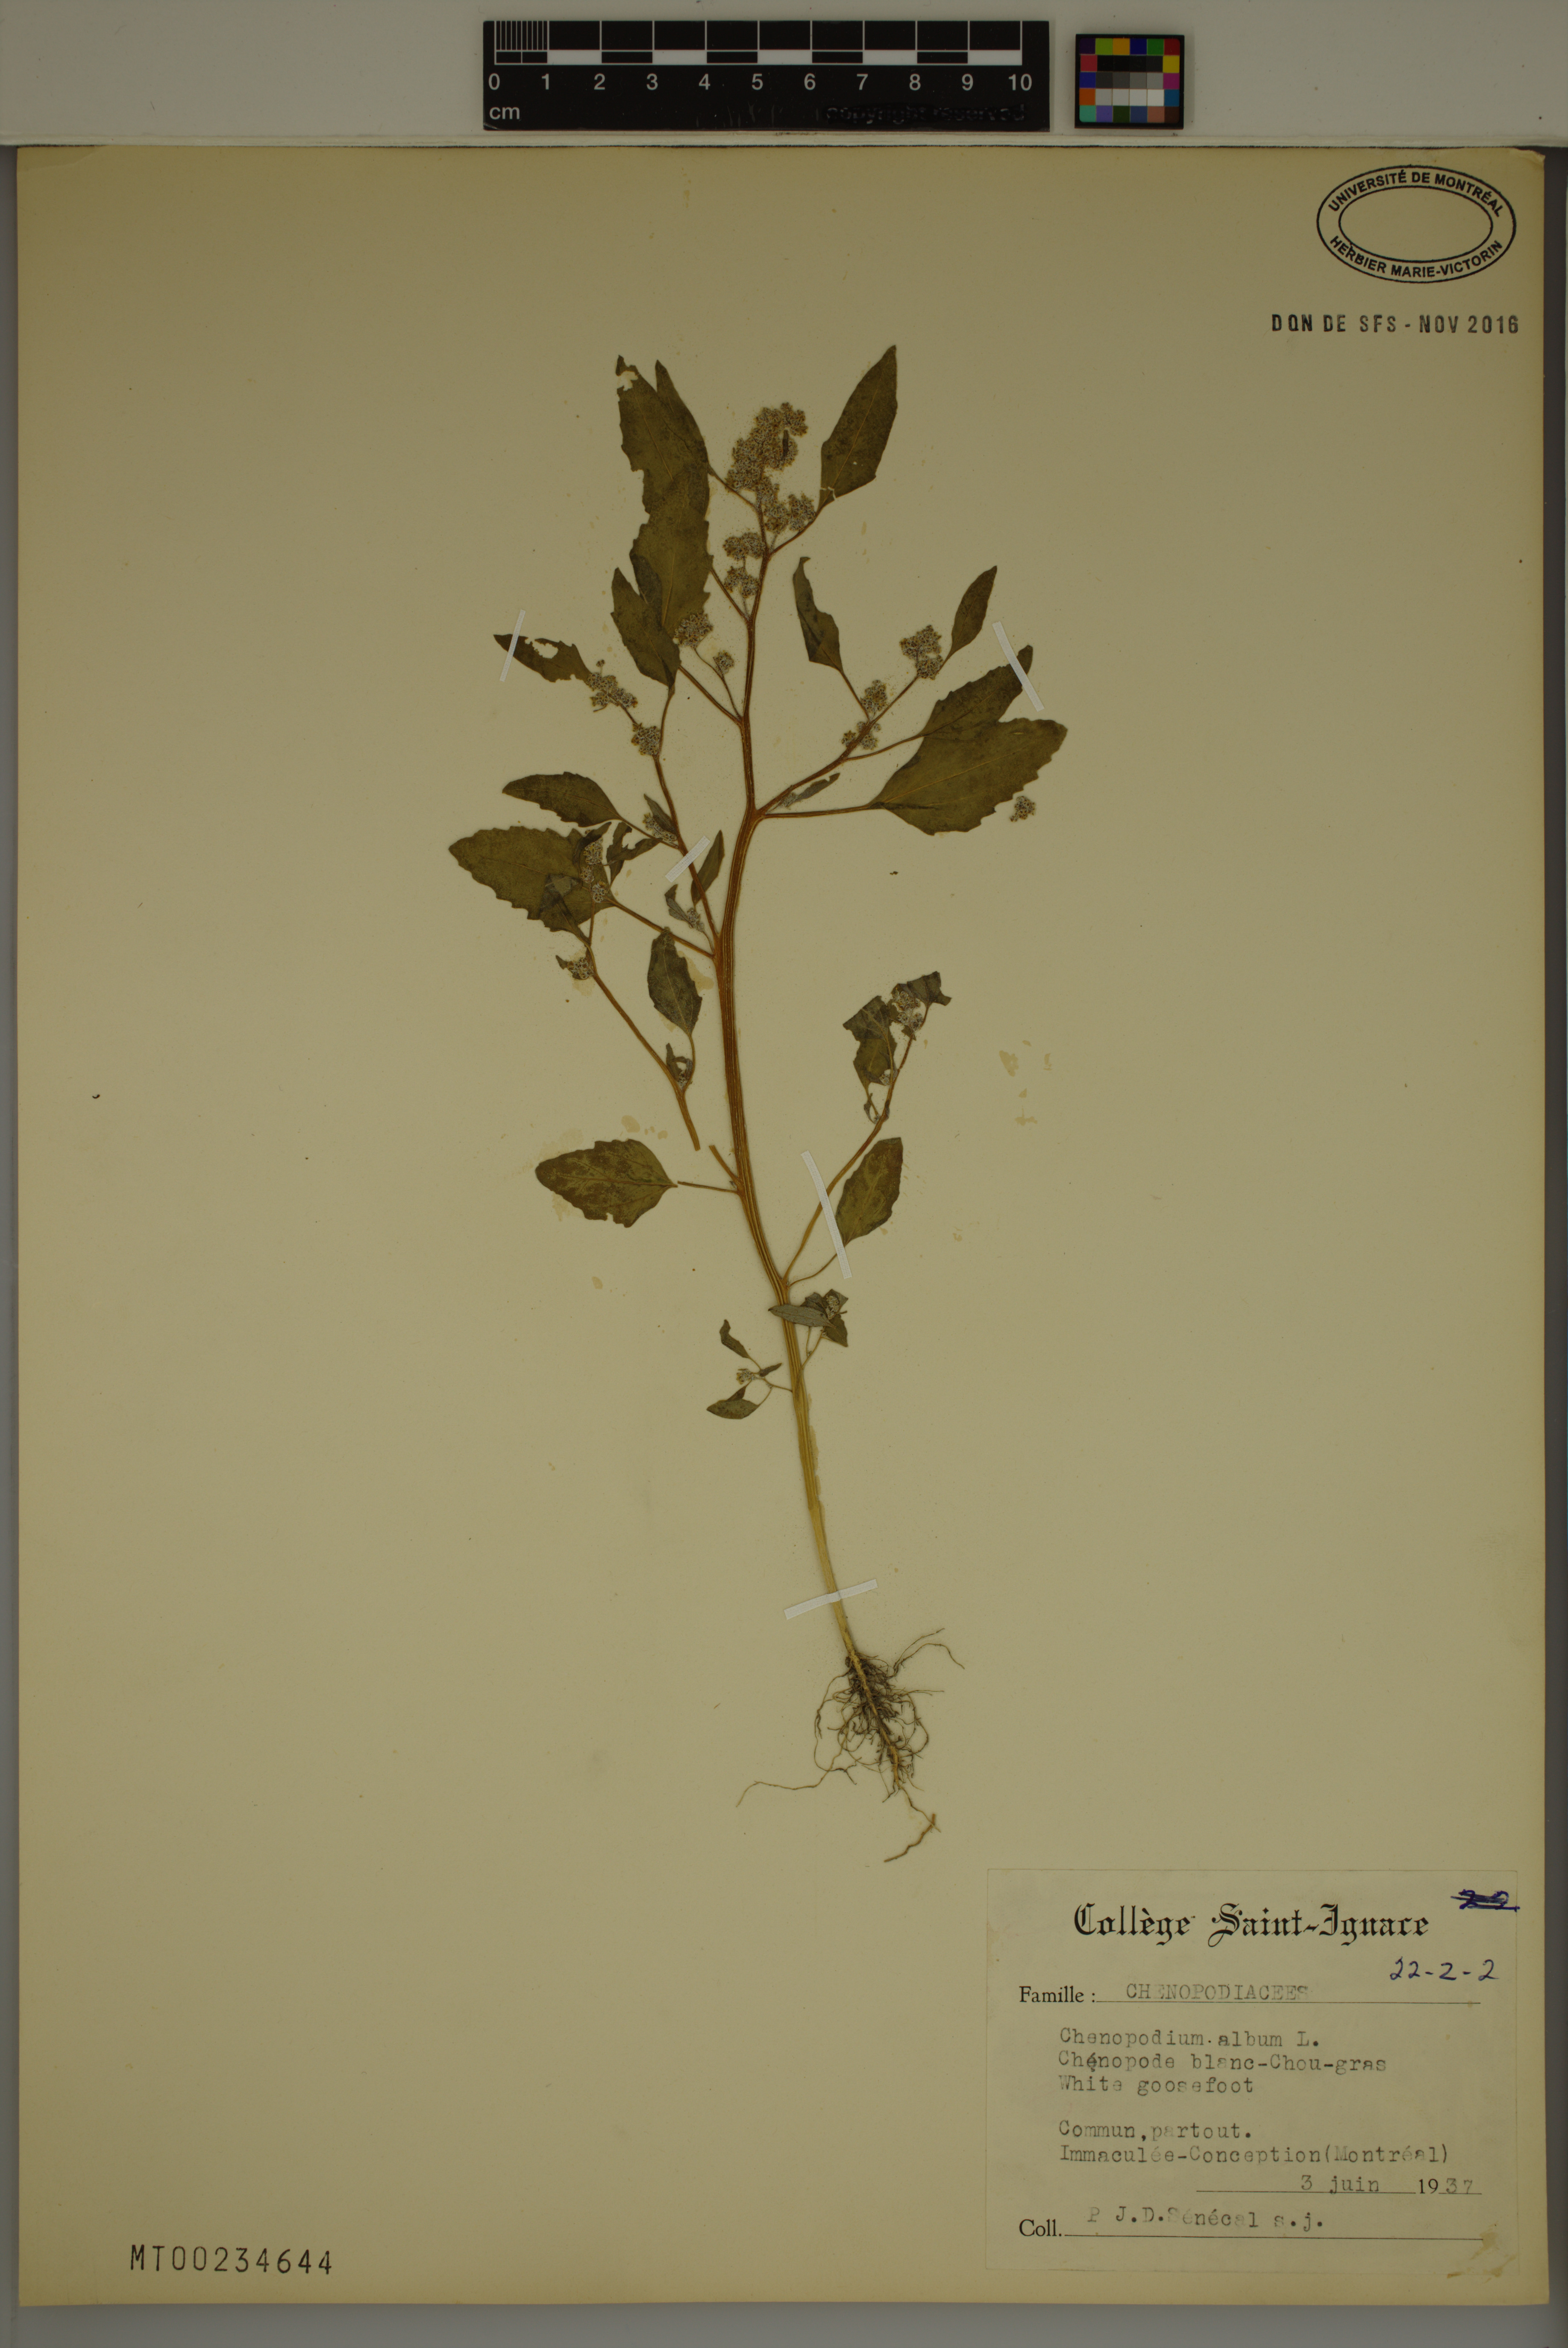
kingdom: Plantae
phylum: Tracheophyta
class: Magnoliopsida
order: Caryophyllales
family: Amaranthaceae
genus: Chenopodium
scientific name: Chenopodium album
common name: Fat-hen
